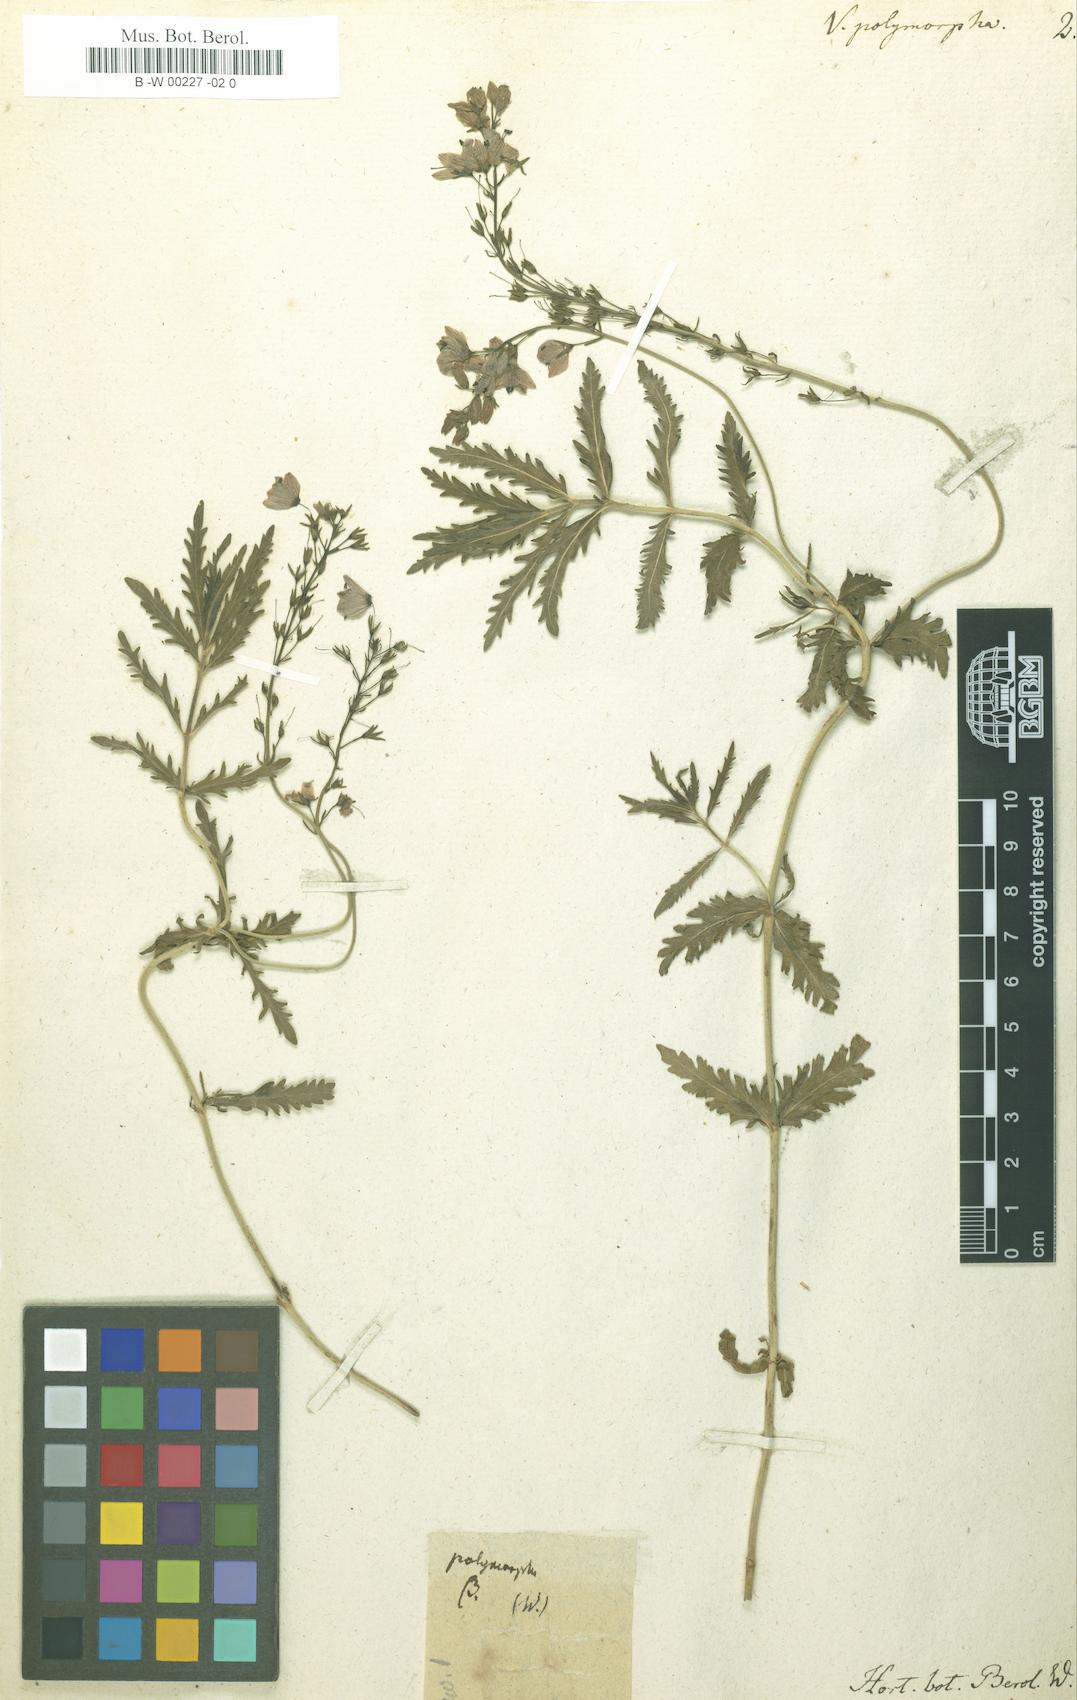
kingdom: Plantae
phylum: Tracheophyta
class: Magnoliopsida
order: Lamiales
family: Plantaginaceae
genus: Veronica
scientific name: Veronica austriaca
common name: Large speedwell
